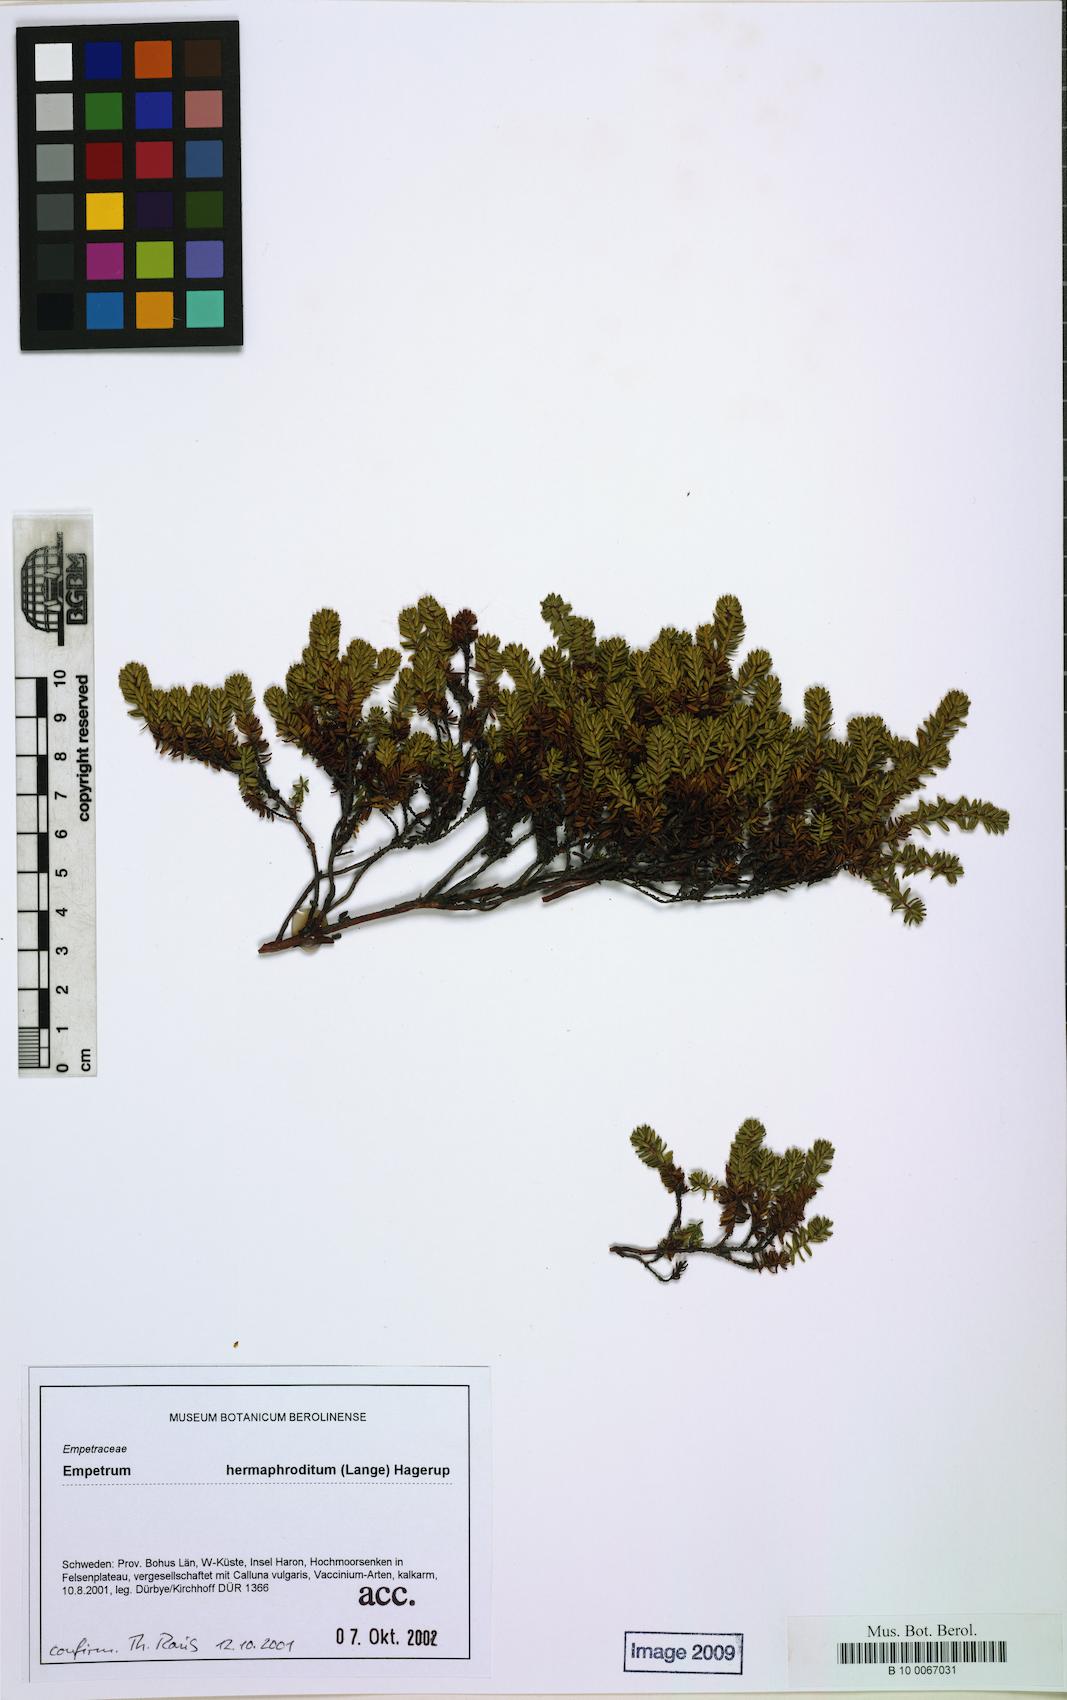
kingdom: Plantae
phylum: Tracheophyta
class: Magnoliopsida
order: Ericales
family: Ericaceae
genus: Empetrum
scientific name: Empetrum
